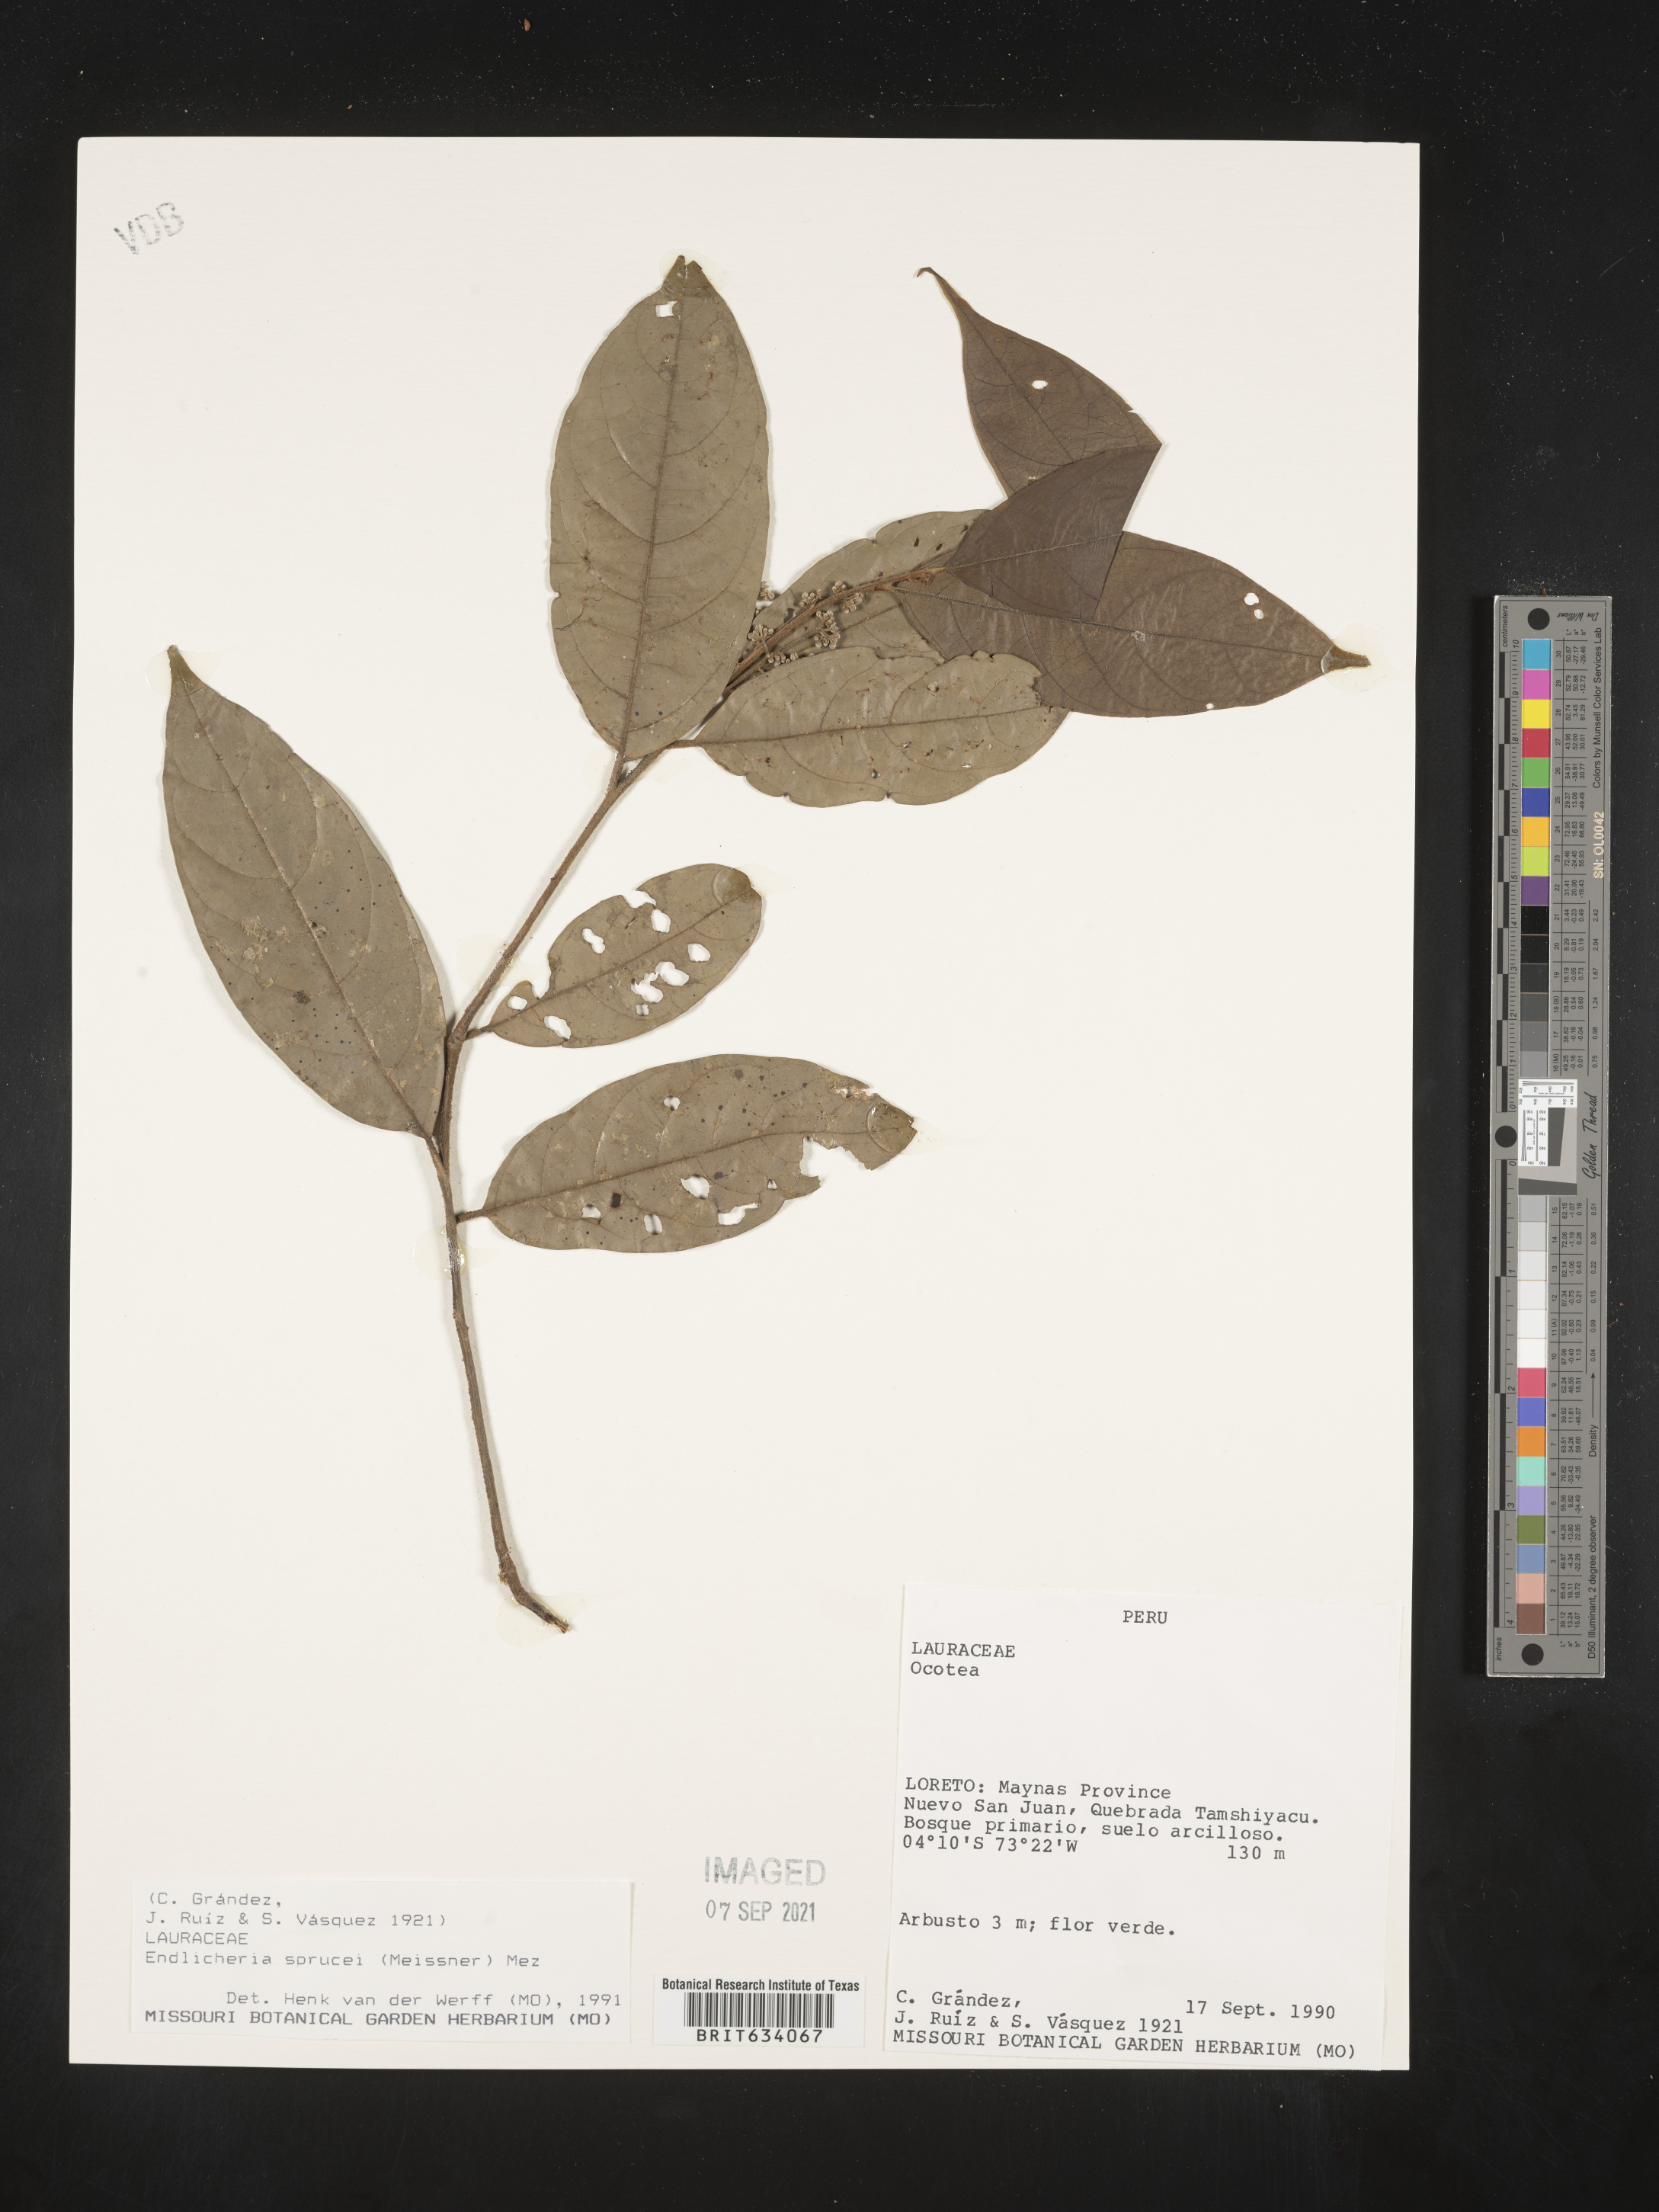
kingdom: Plantae
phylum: Tracheophyta
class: Magnoliopsida
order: Laurales
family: Lauraceae
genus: Endlicheria
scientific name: Endlicheria
